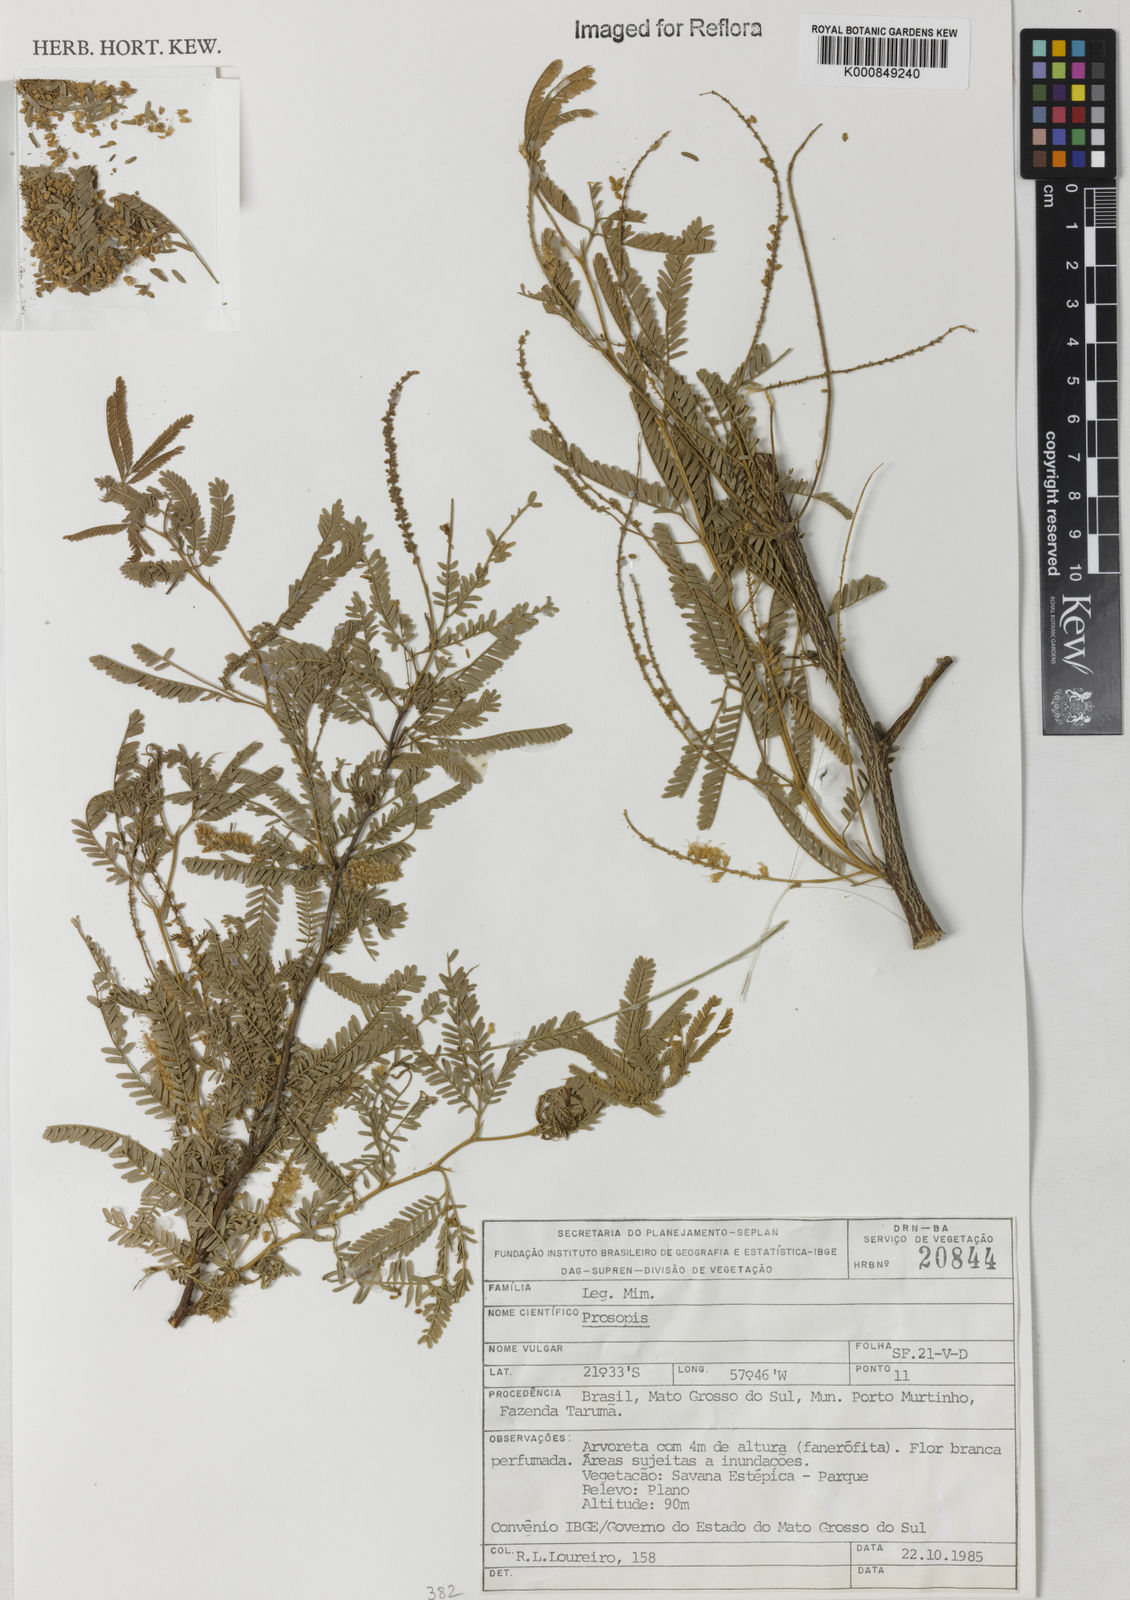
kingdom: Plantae
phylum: Tracheophyta
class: Magnoliopsida
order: Fabales
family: Fabaceae
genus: Prosopis
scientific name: Prosopis
